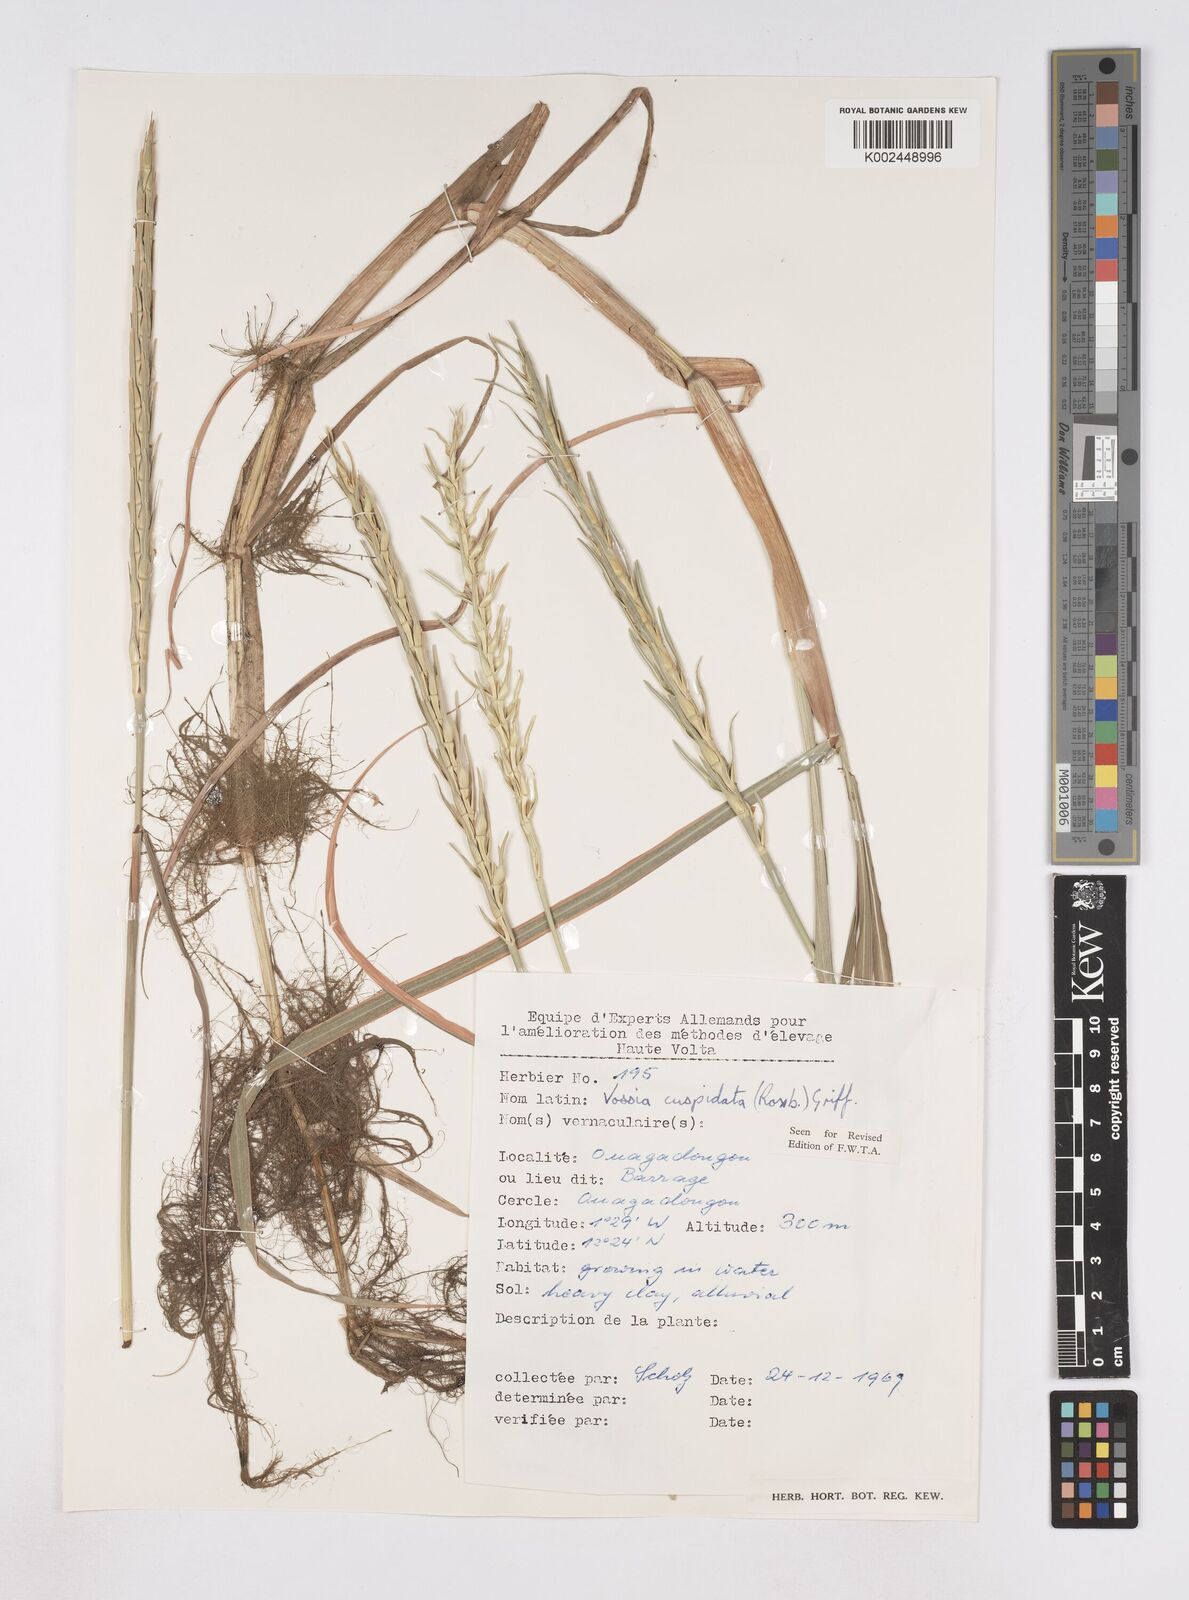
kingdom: Plantae
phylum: Tracheophyta
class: Liliopsida
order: Poales
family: Poaceae
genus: Vossia
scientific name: Vossia cuspidata
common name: Hippo grass
